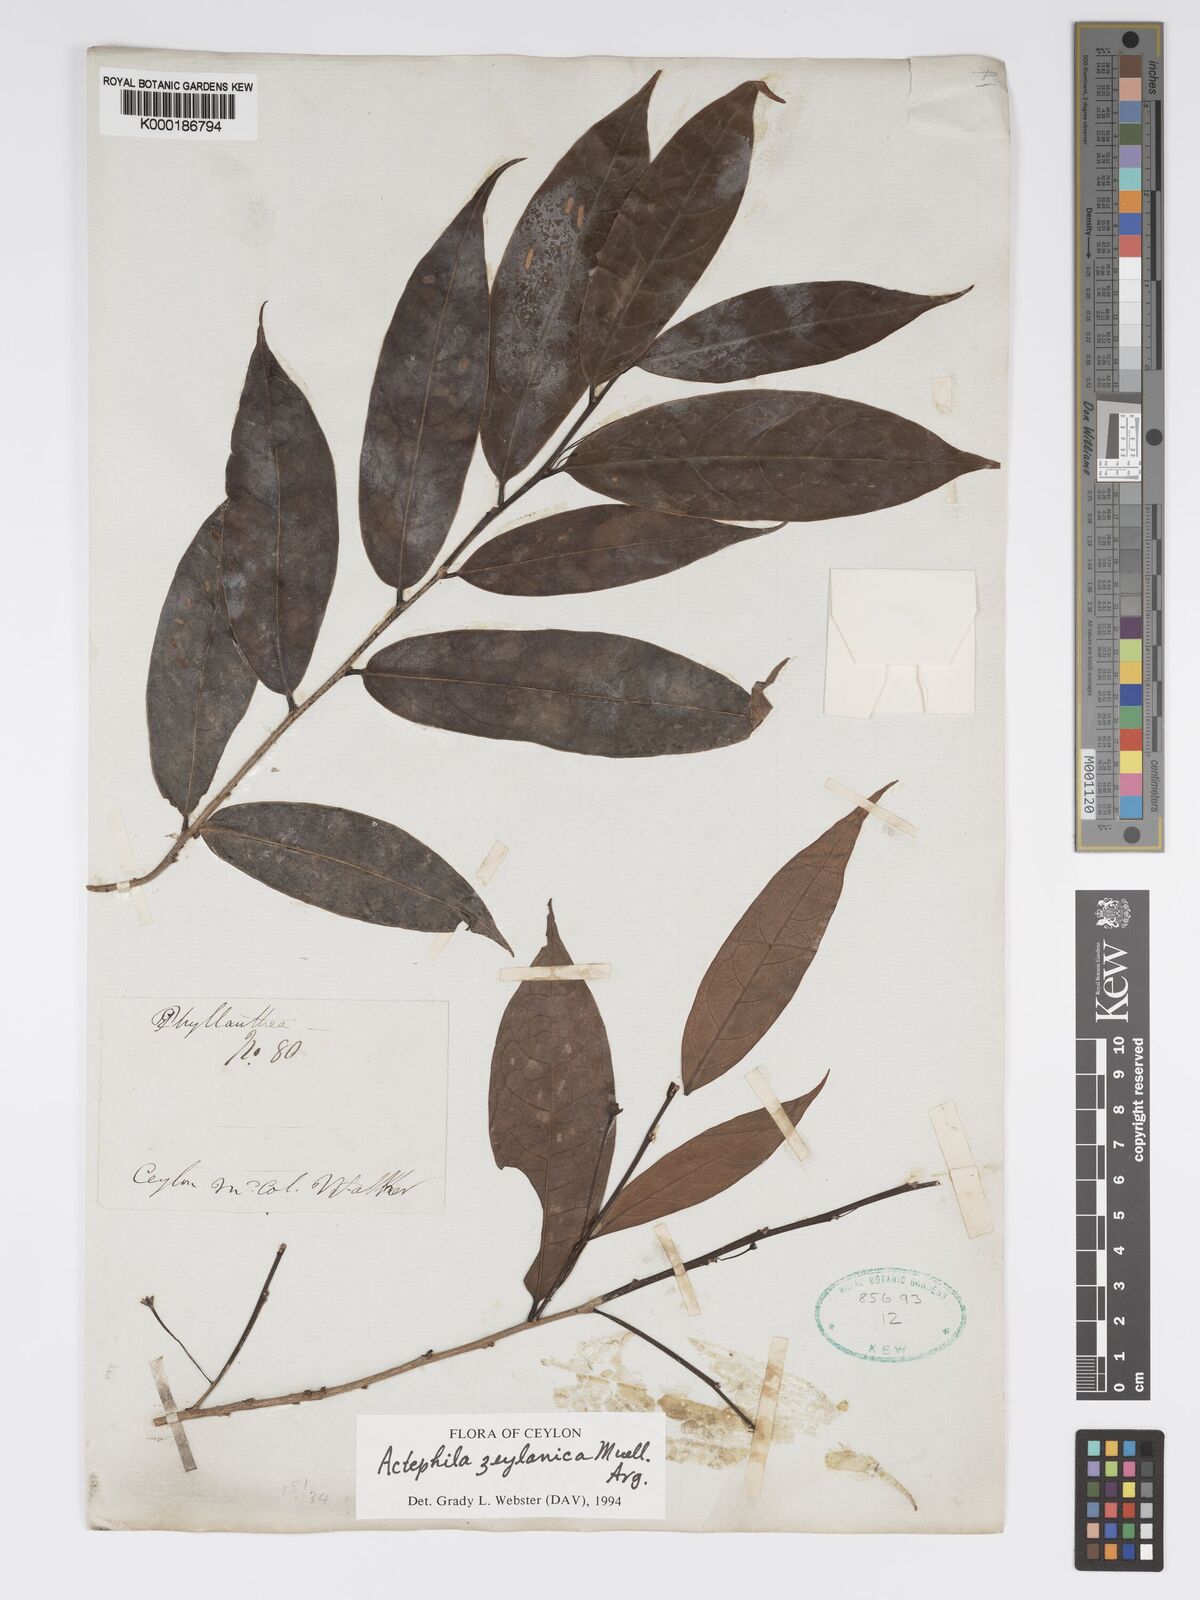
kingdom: Plantae
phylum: Tracheophyta
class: Magnoliopsida
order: Malpighiales
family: Phyllanthaceae
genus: Actephila
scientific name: Actephila excelsa
